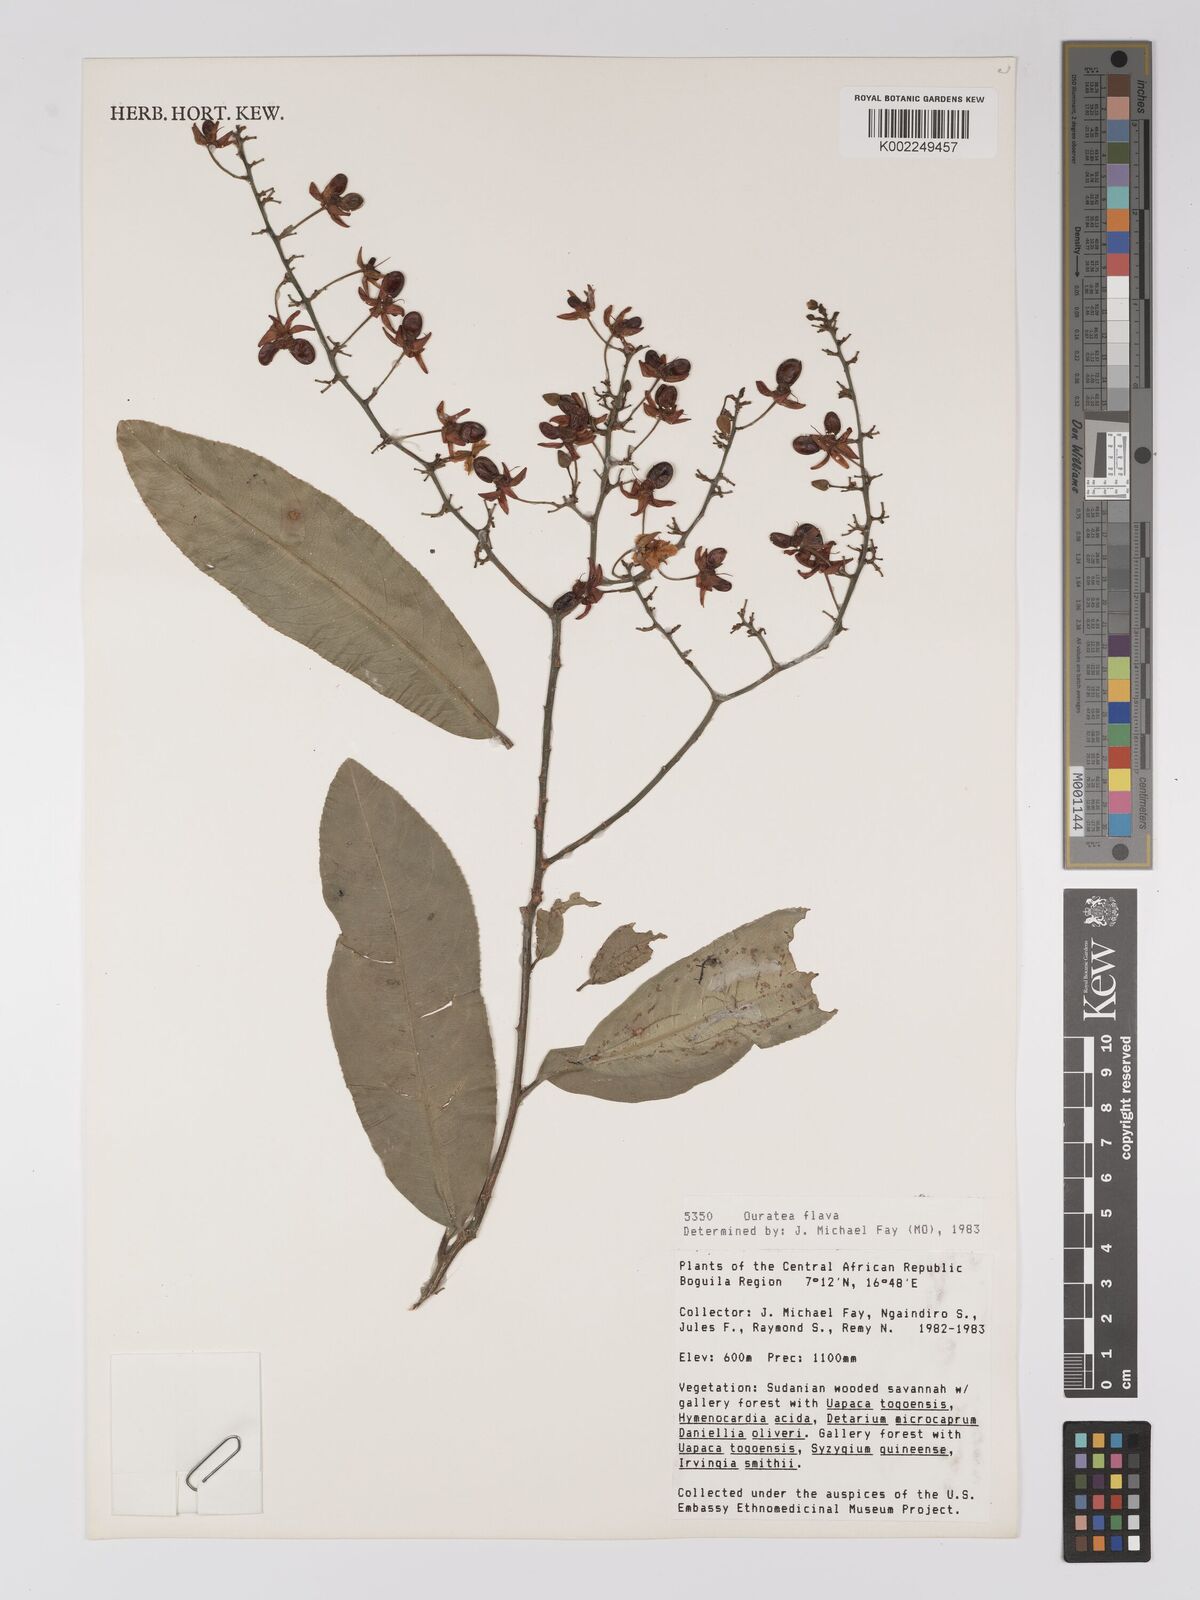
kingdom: Plantae
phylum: Tracheophyta
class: Magnoliopsida
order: Malpighiales
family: Ochnaceae
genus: Campylospermum
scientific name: Campylospermum flavum
